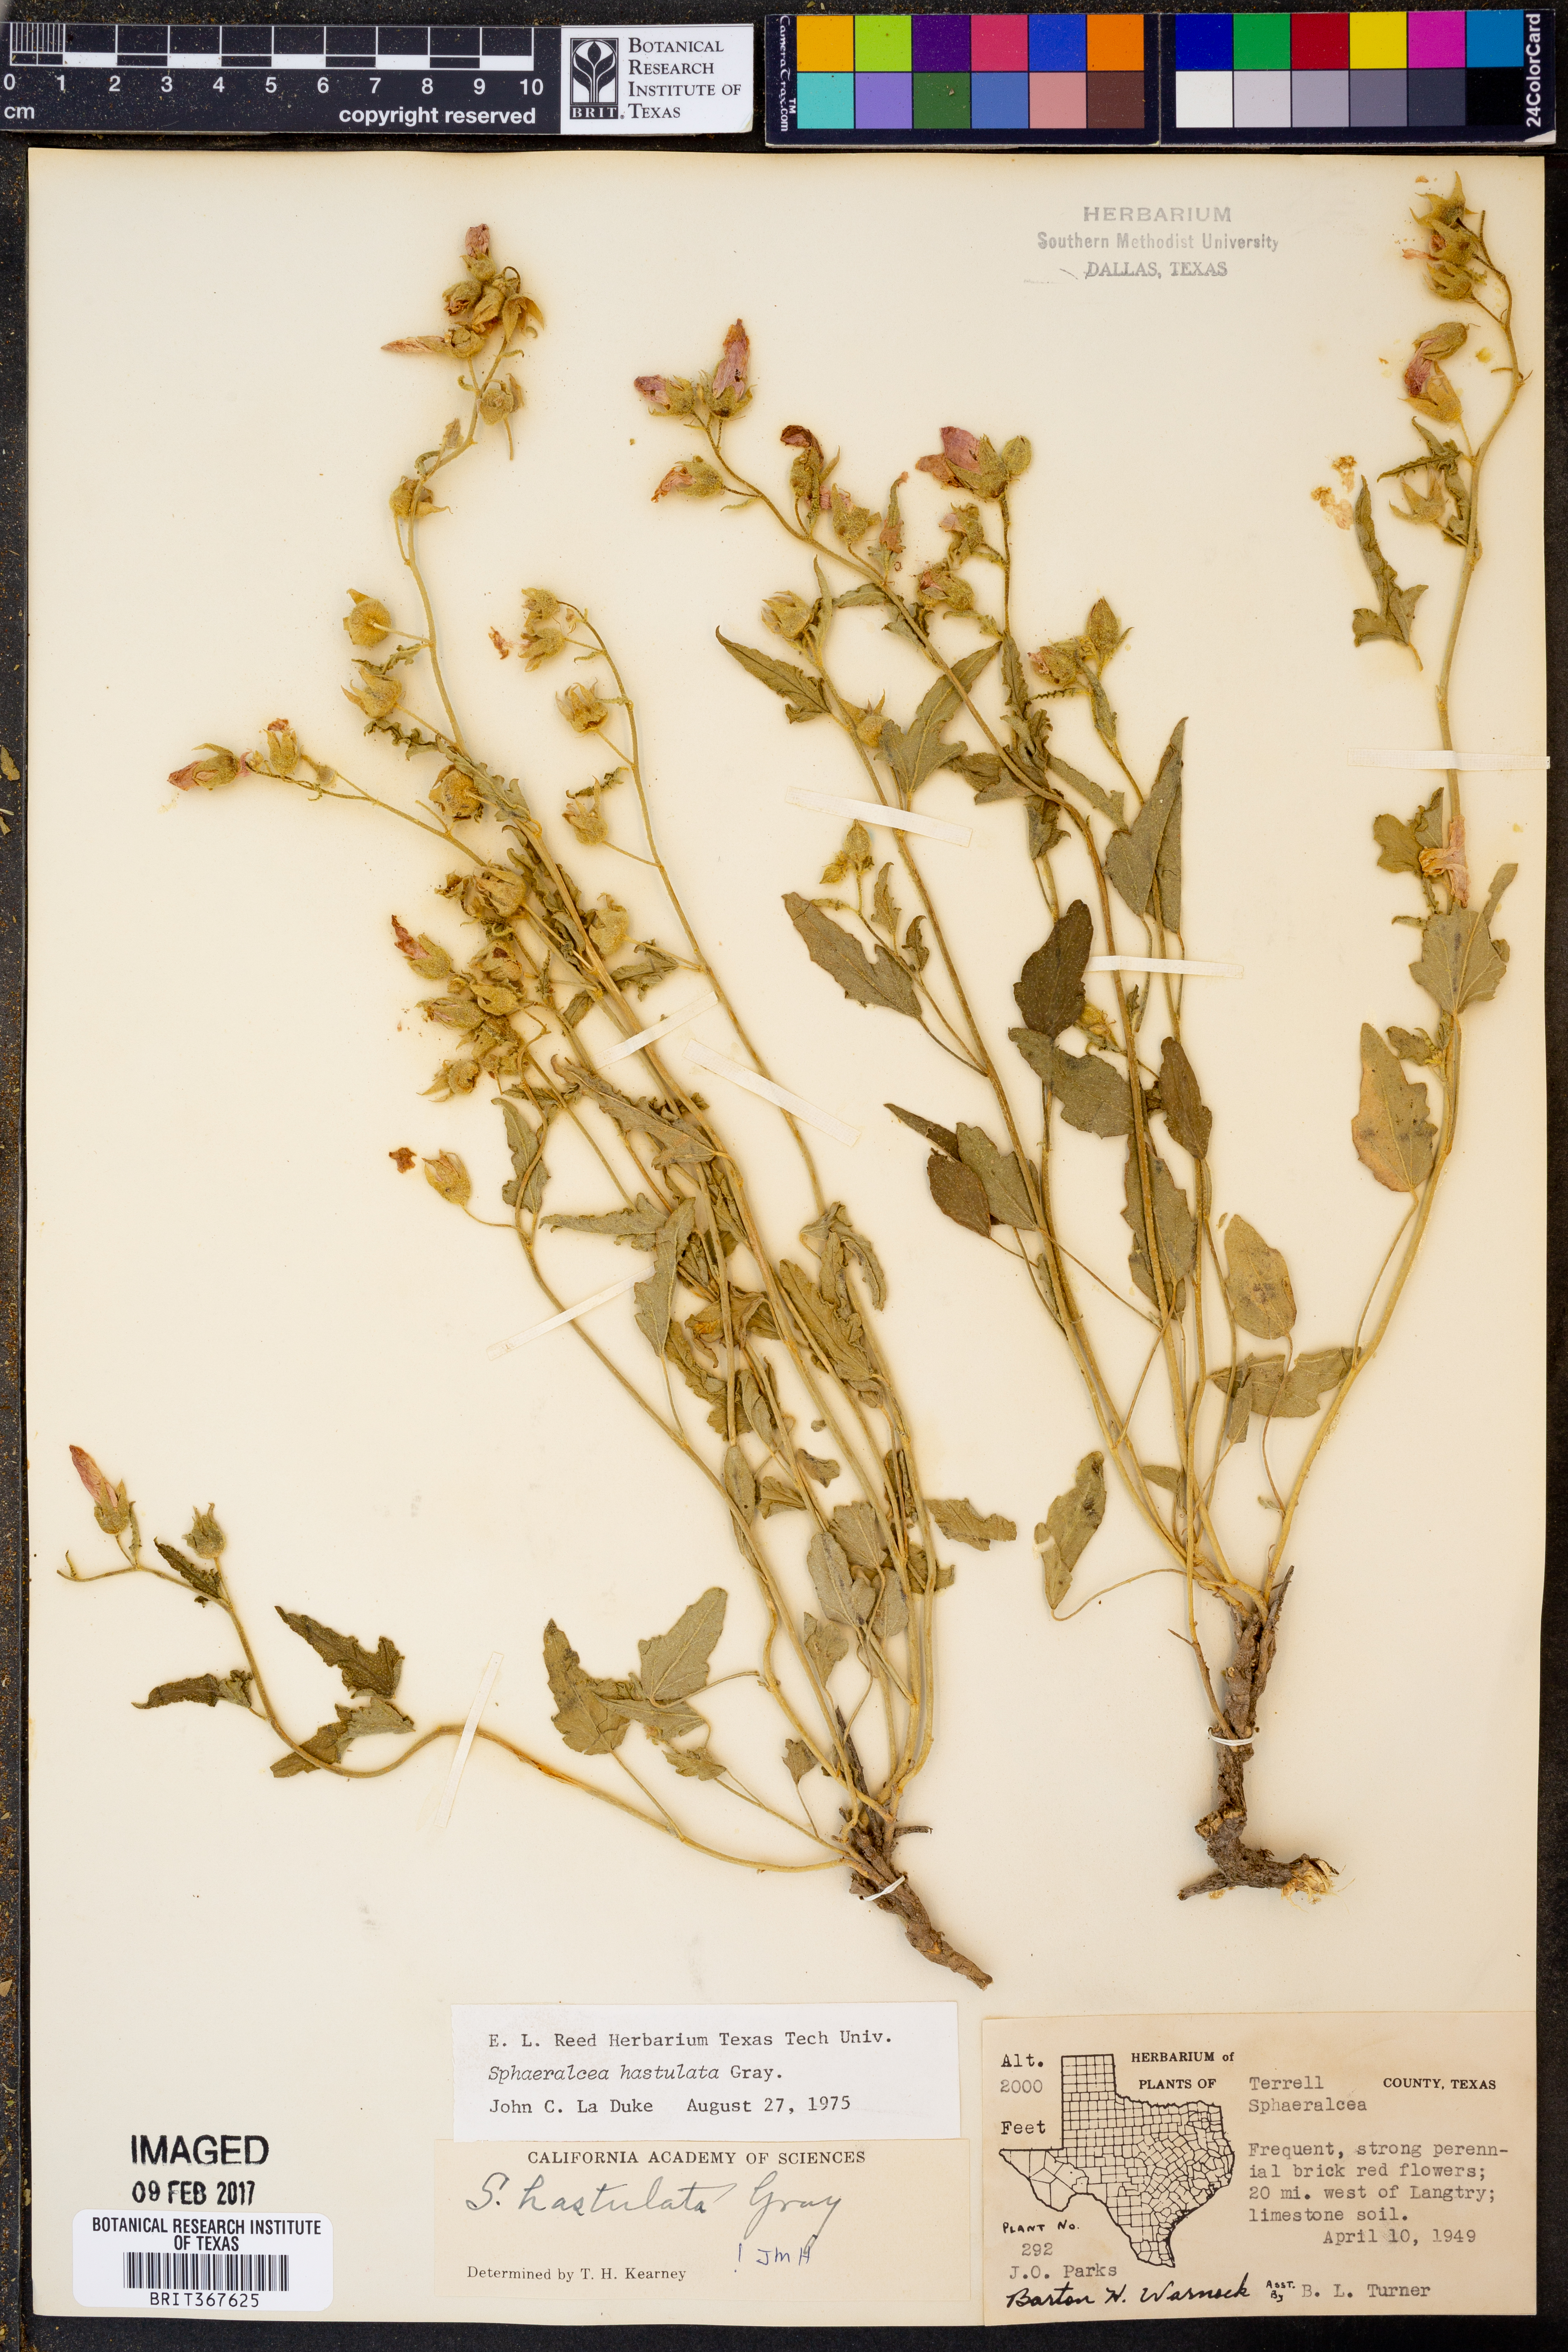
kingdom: Plantae
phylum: Tracheophyta
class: Magnoliopsida
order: Malvales
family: Malvaceae
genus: Sphaeralcea
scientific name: Sphaeralcea hastulata
